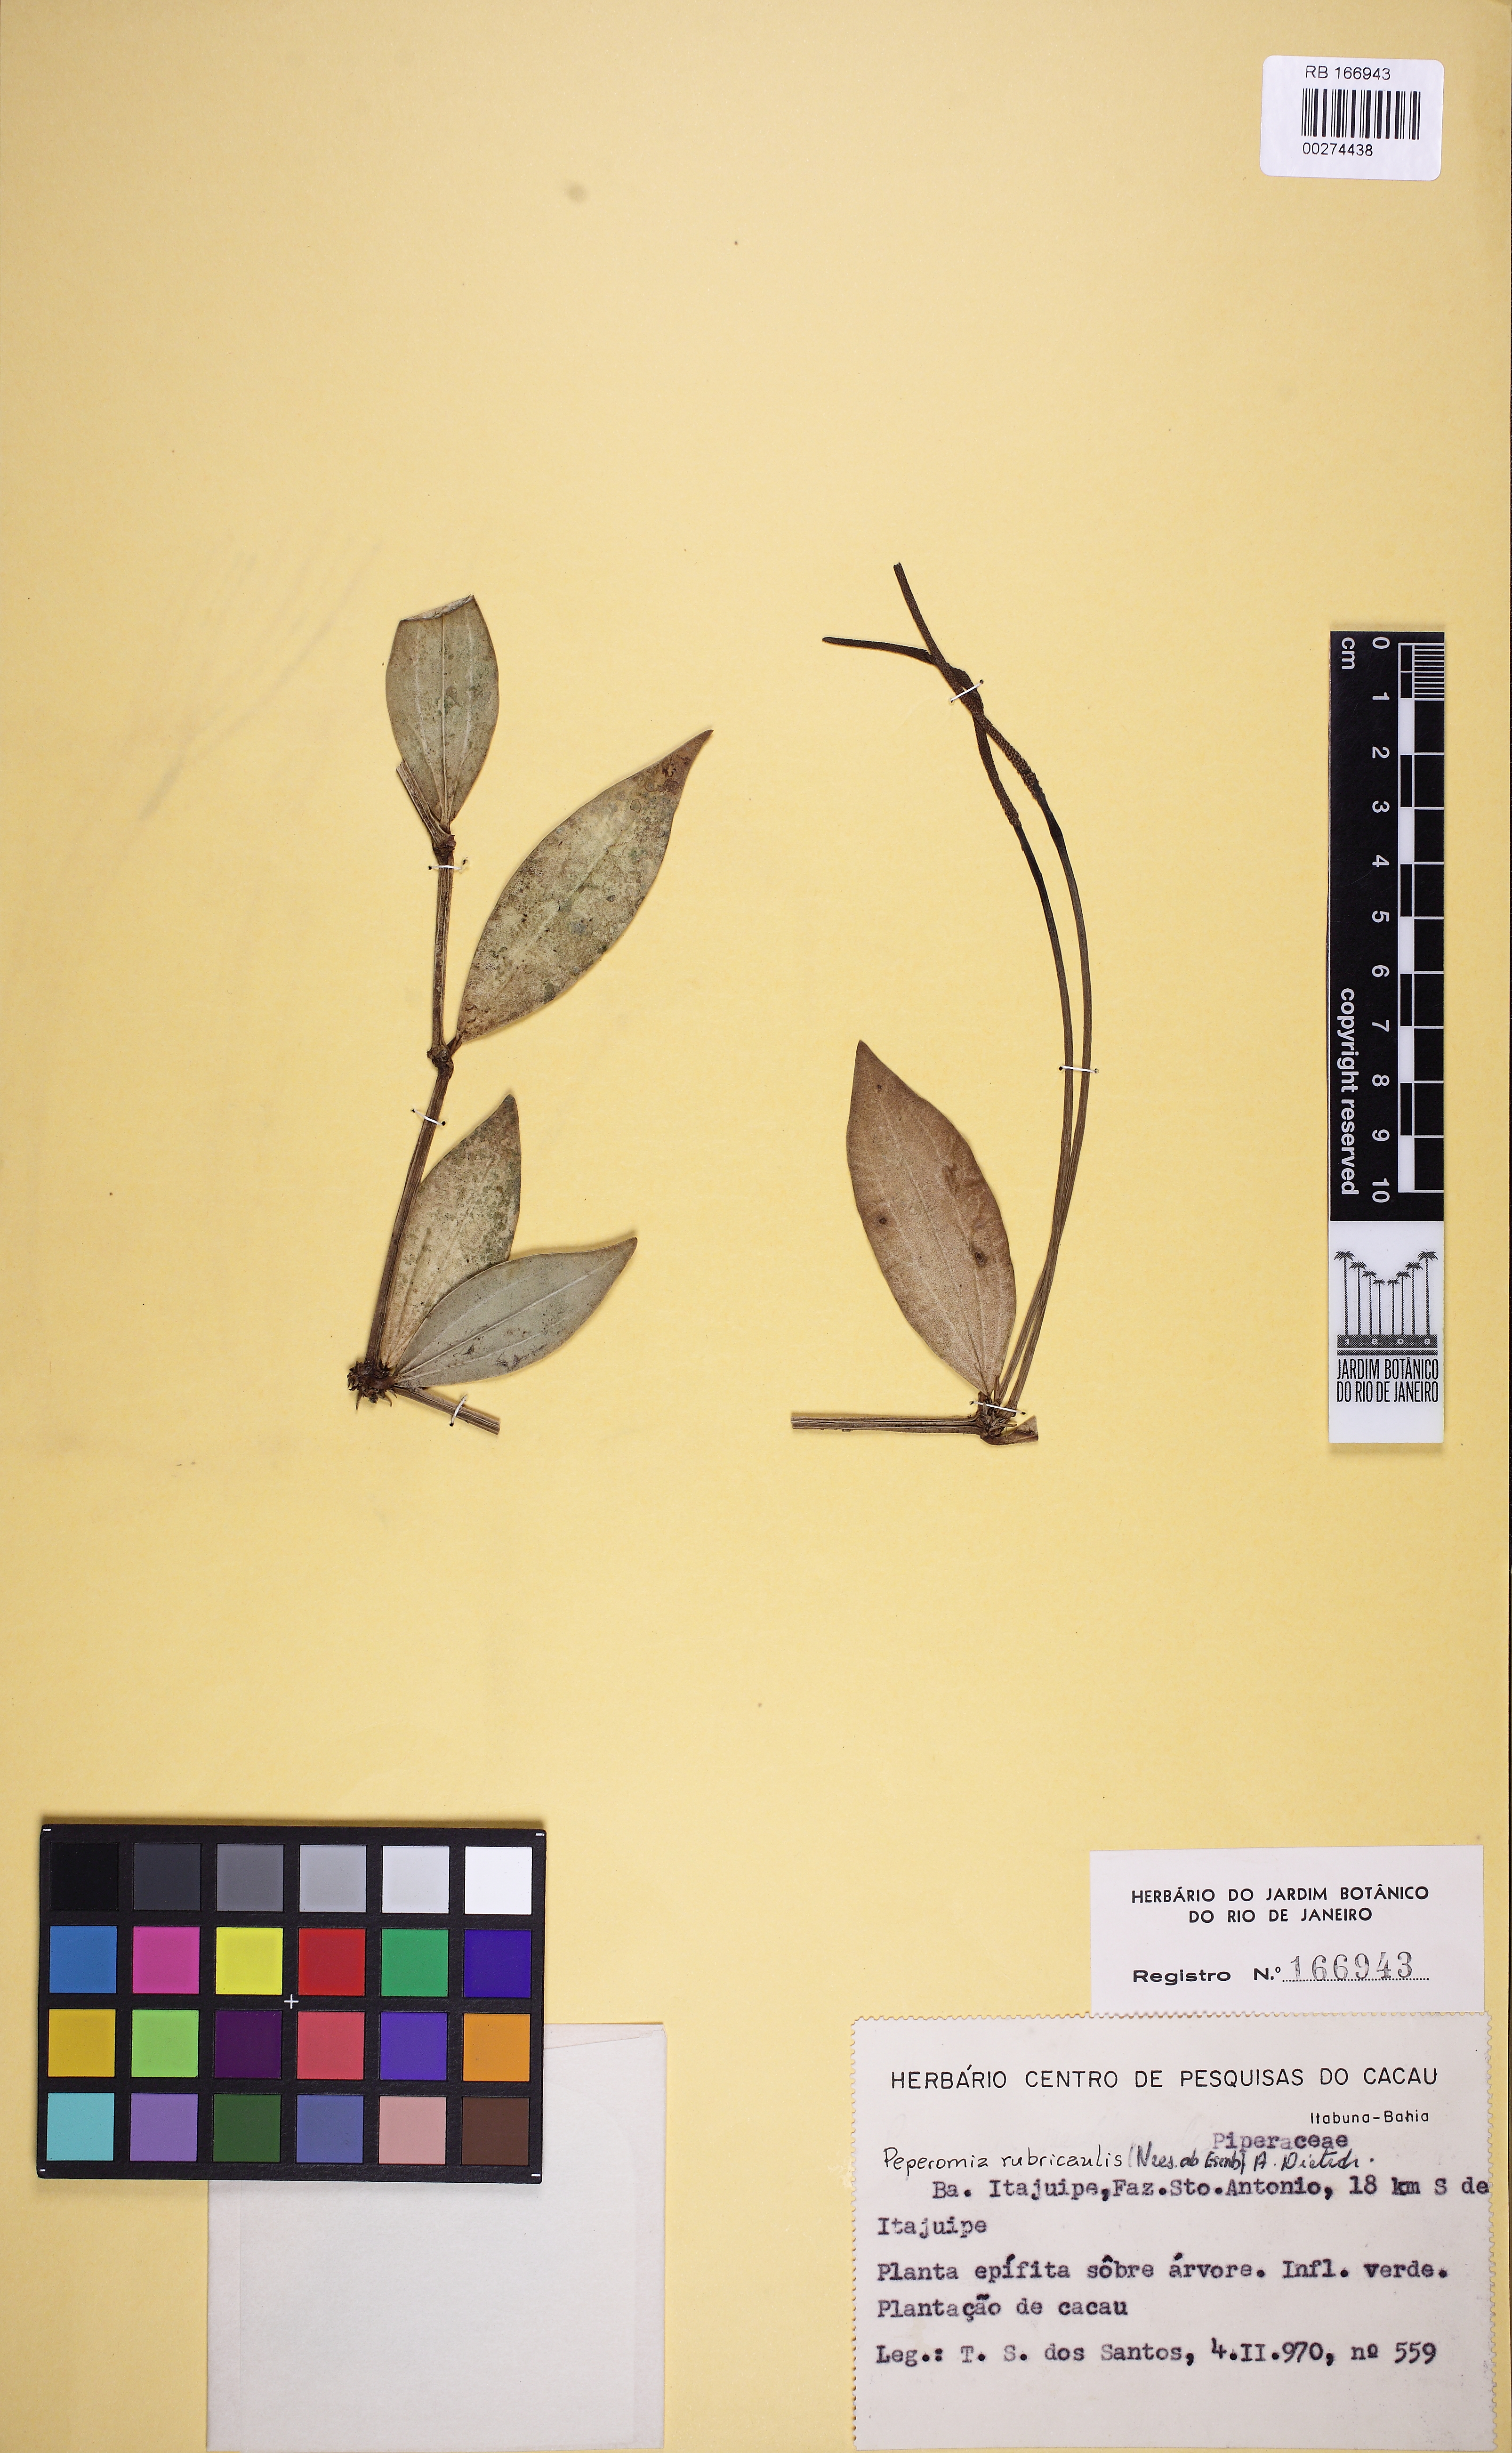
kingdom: Plantae
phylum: Tracheophyta
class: Magnoliopsida
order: Piperales
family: Piperaceae
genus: Peperomia
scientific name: Peperomia hirtellicaulis
